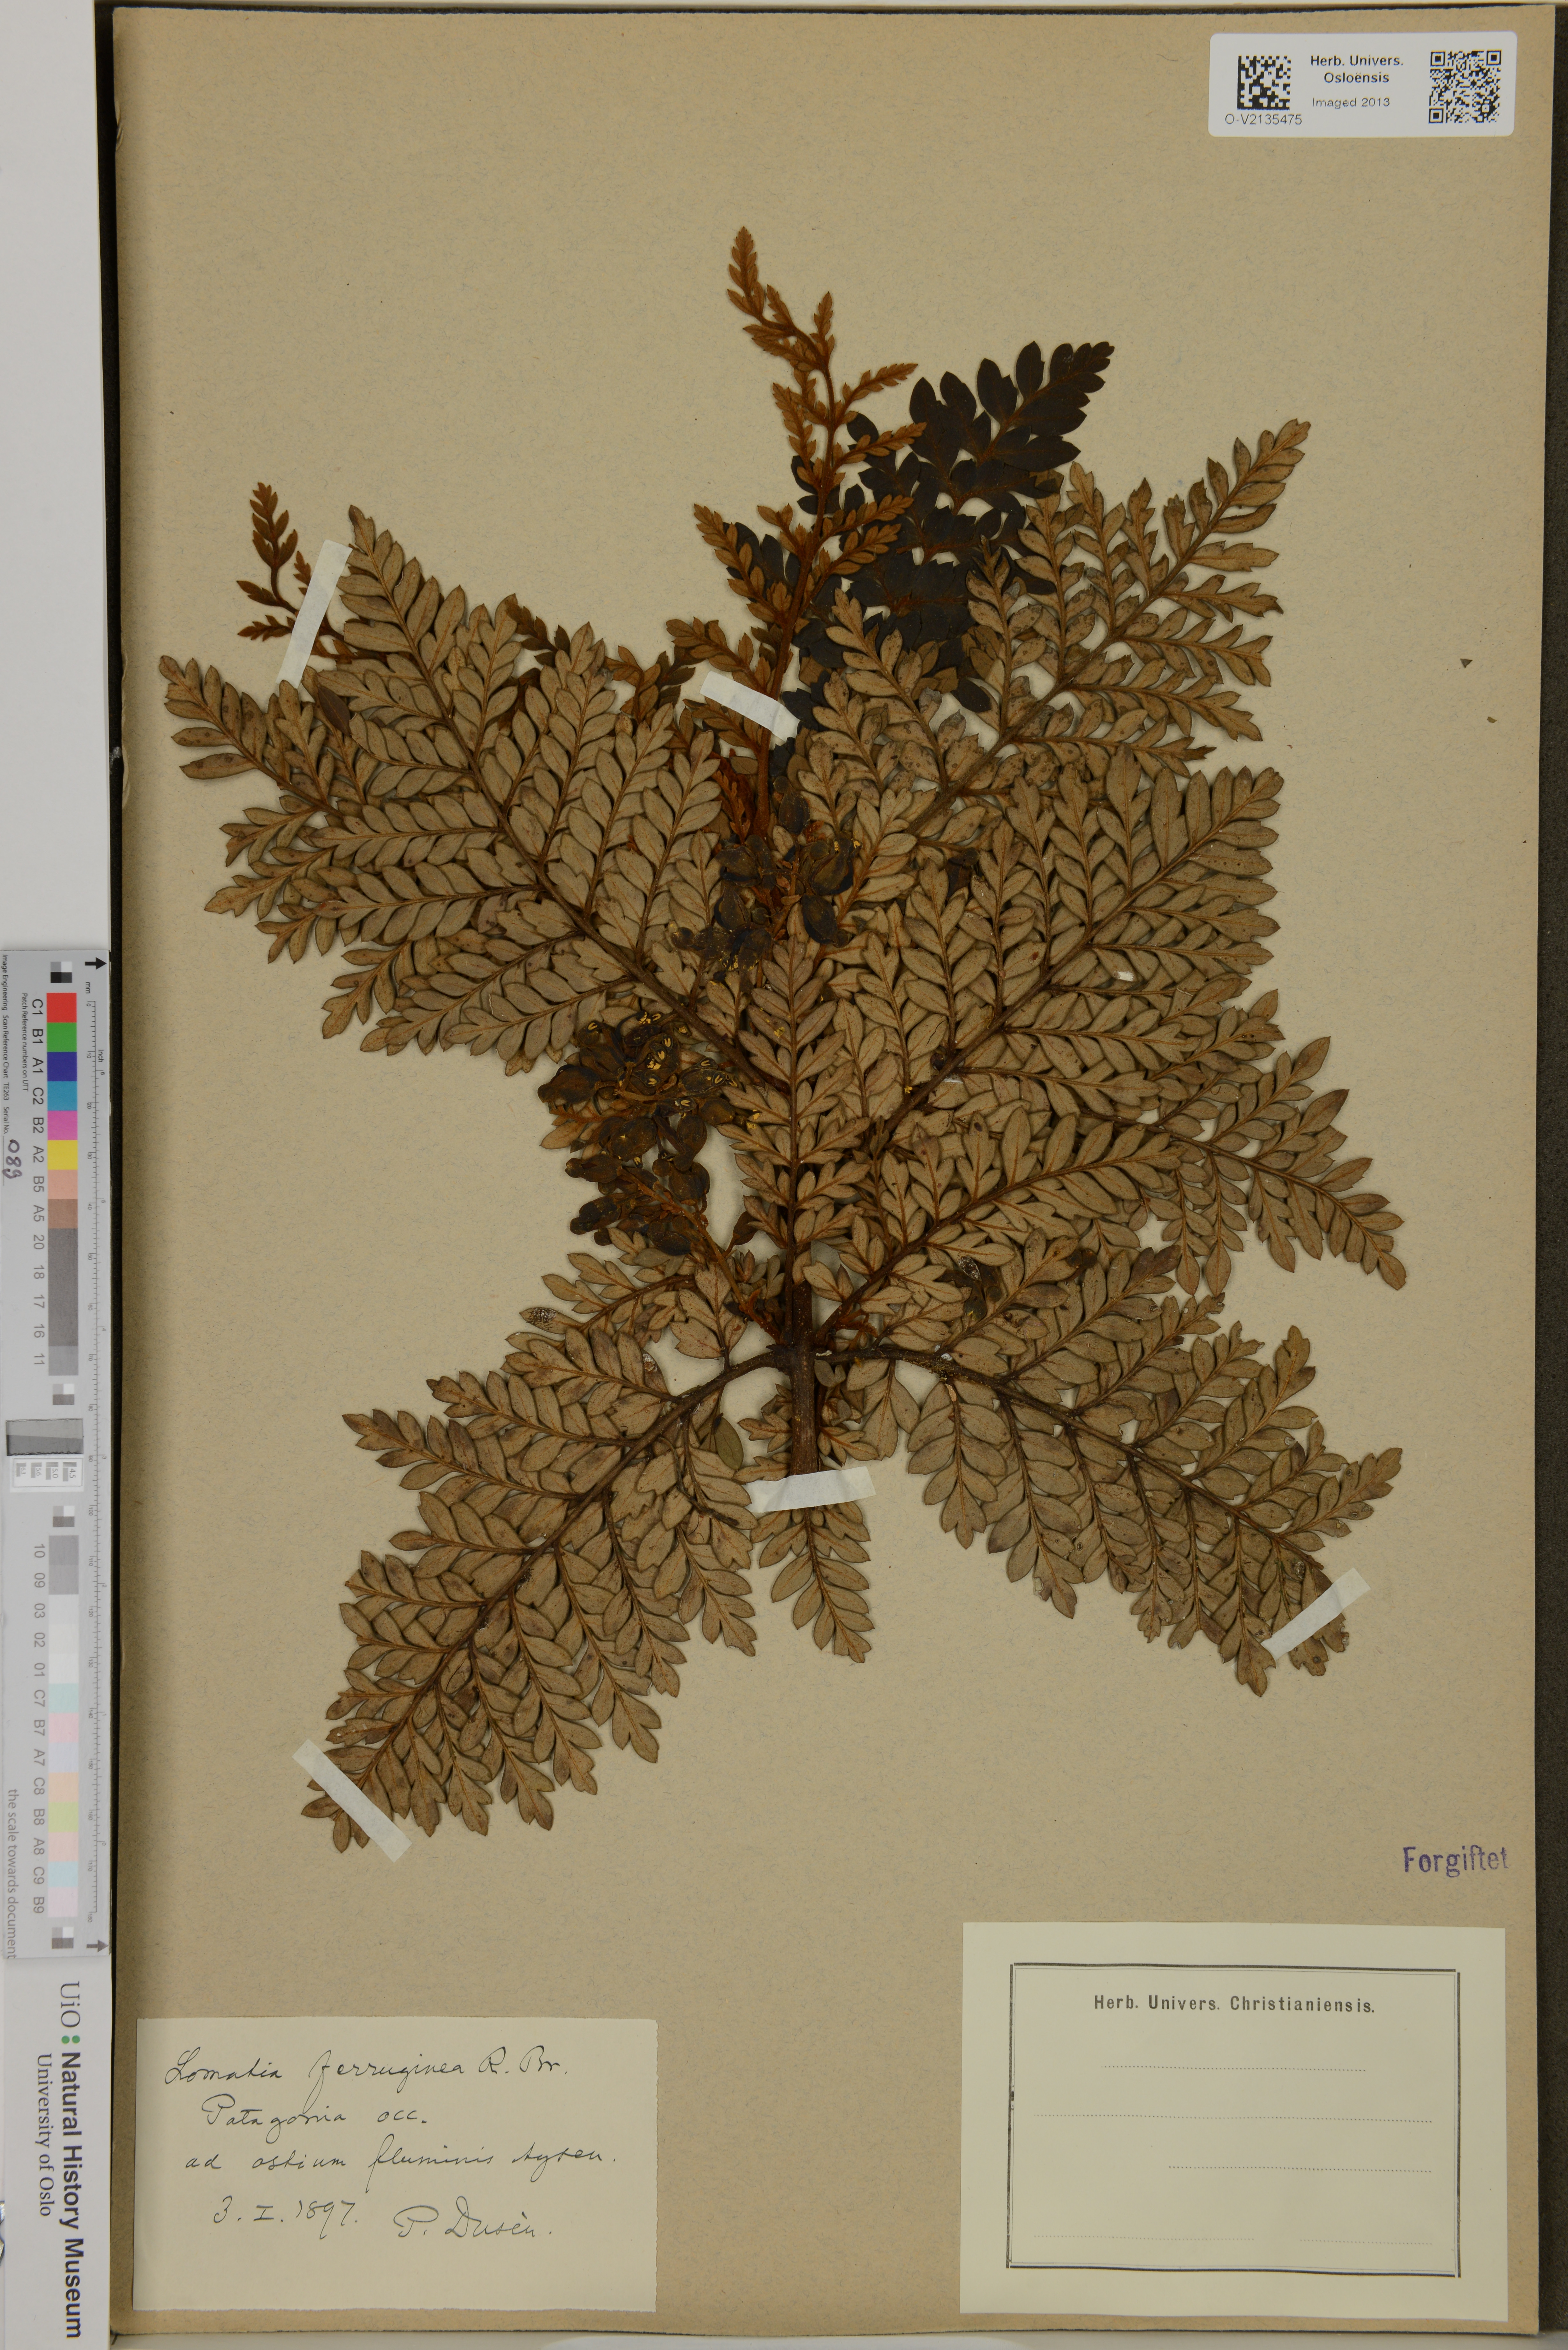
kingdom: Plantae
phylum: Tracheophyta
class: Magnoliopsida
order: Proteales
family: Proteaceae
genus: Lomatia
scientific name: Lomatia ferruginea
